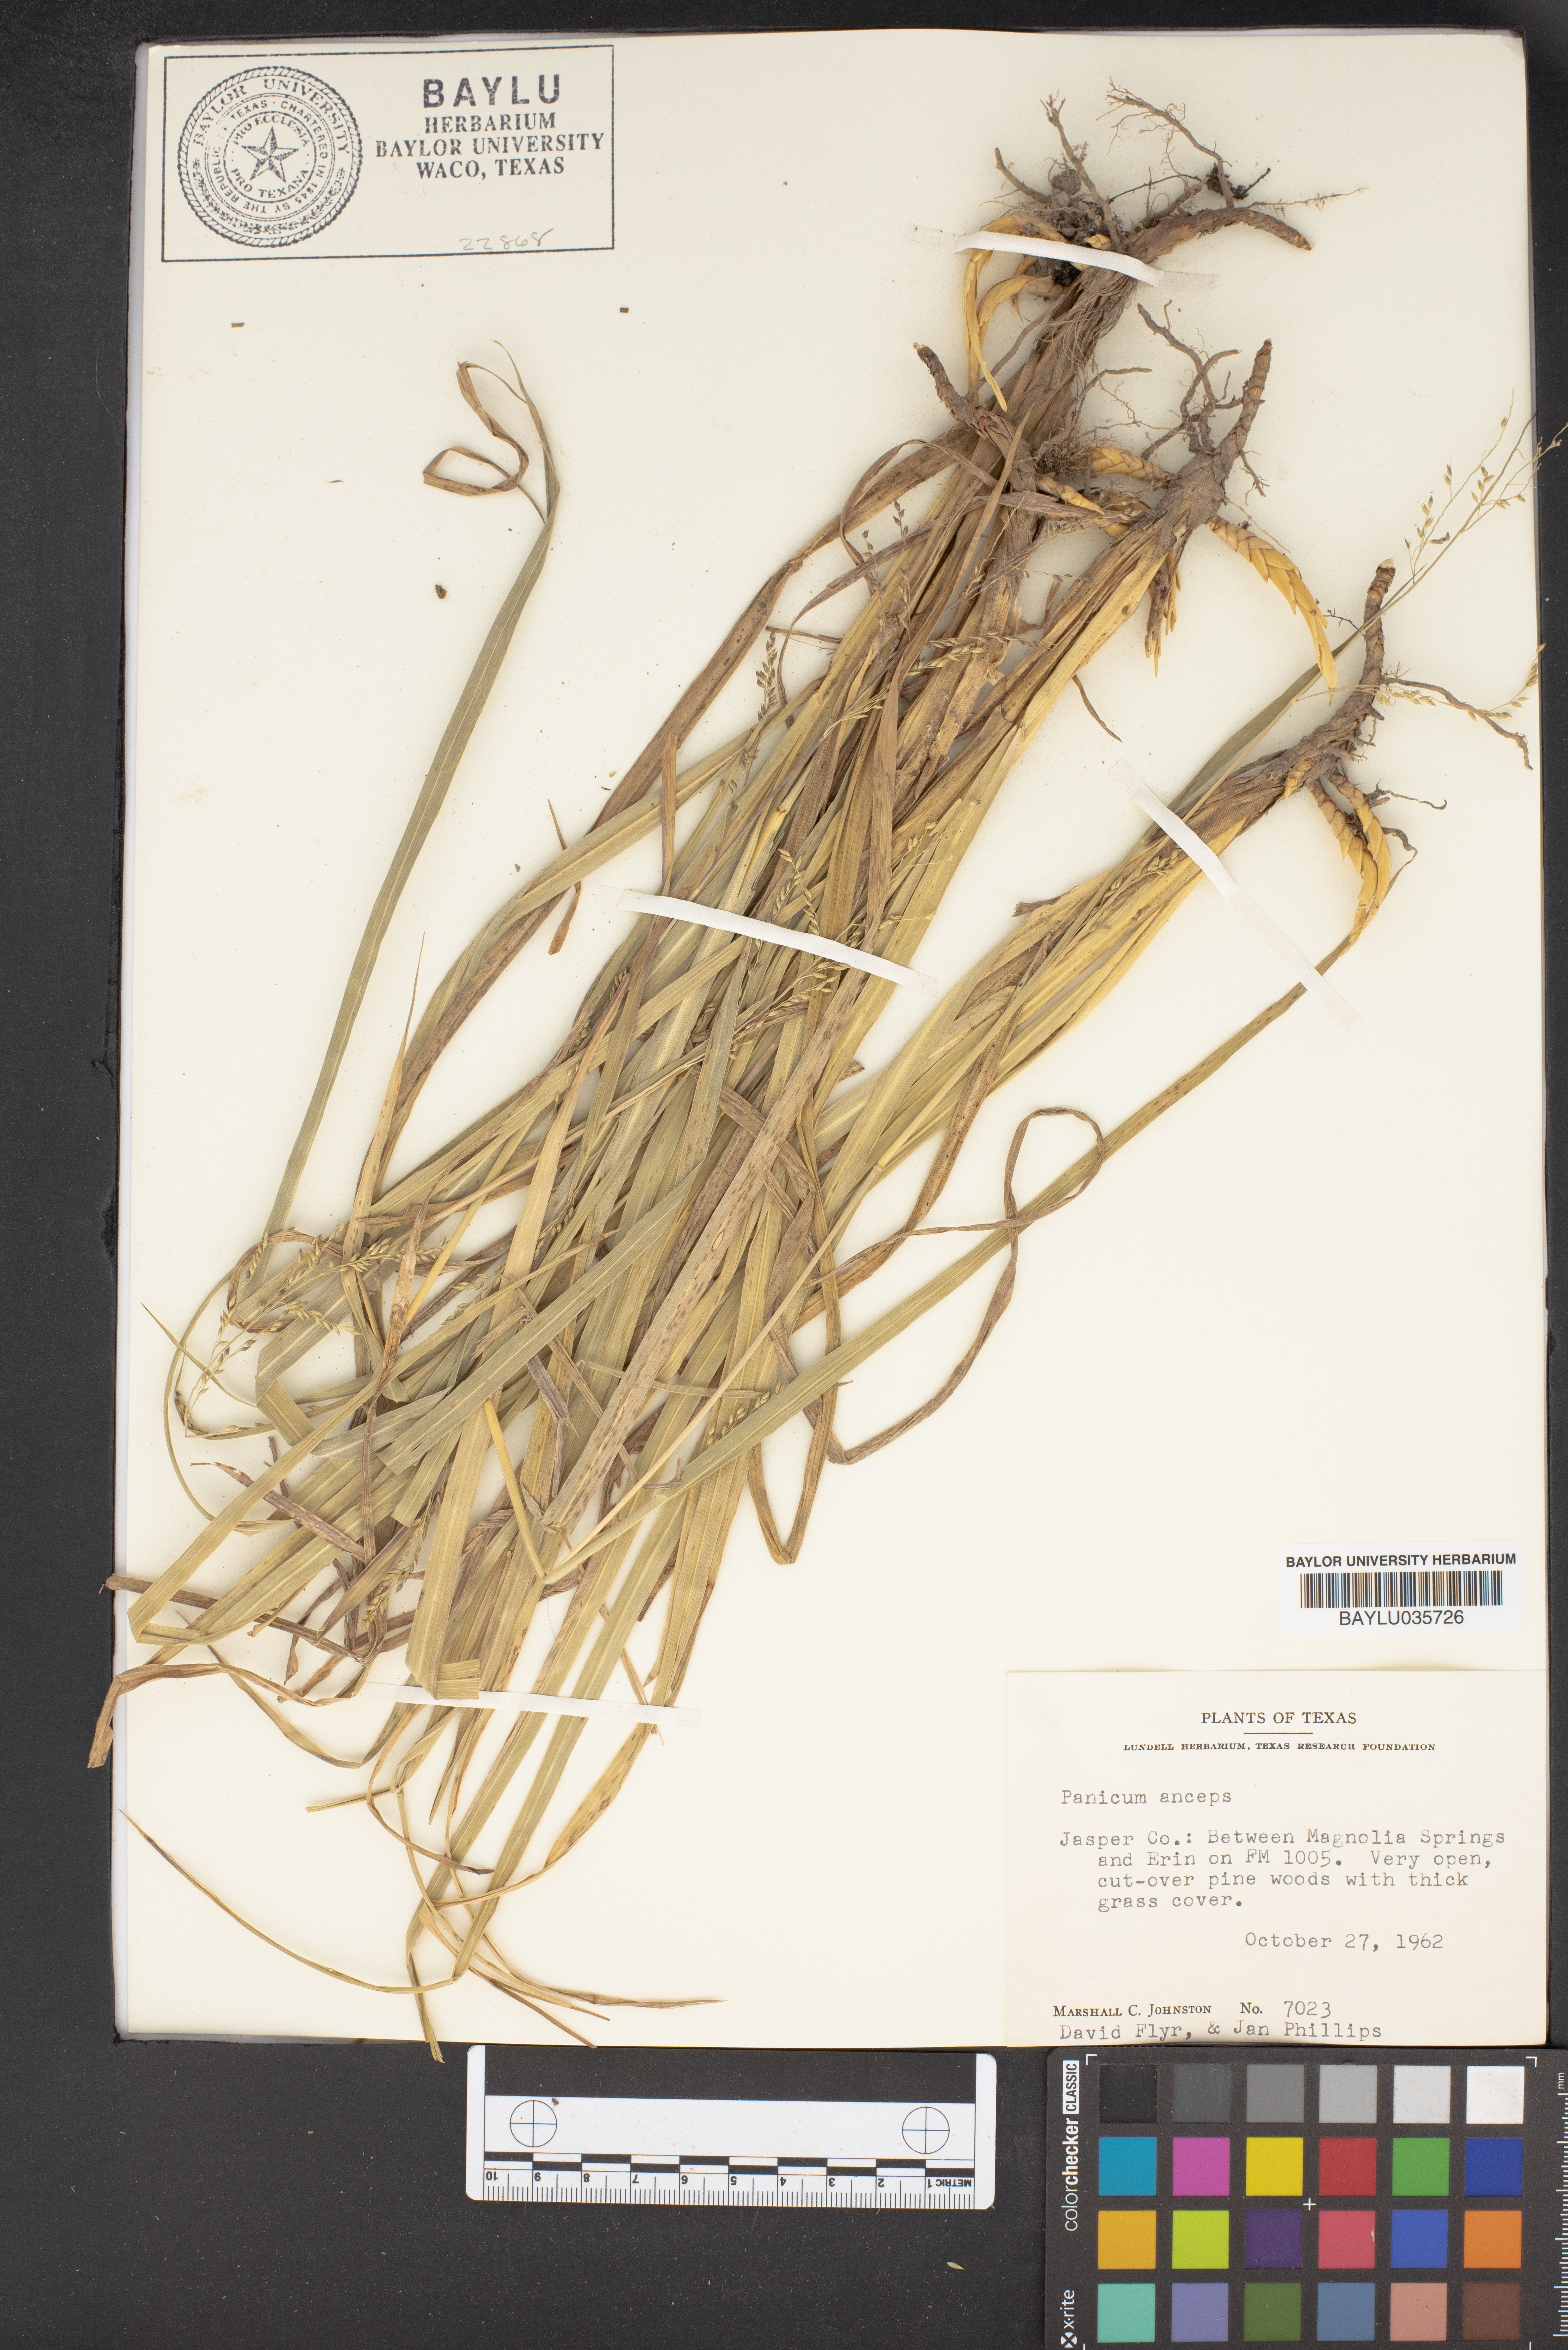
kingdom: Plantae
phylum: Tracheophyta
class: Liliopsida
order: Poales
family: Poaceae
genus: Coleataenia
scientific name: Coleataenia anceps
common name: Beaked panic grass
